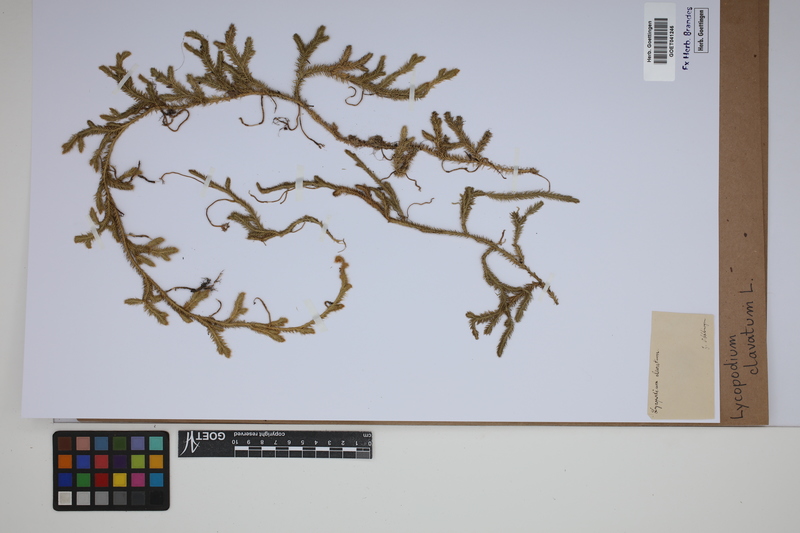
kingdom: Plantae
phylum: Tracheophyta
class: Lycopodiopsida
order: Lycopodiales
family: Lycopodiaceae
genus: Lycopodium
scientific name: Lycopodium clavatum
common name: Stag's-horn clubmoss
